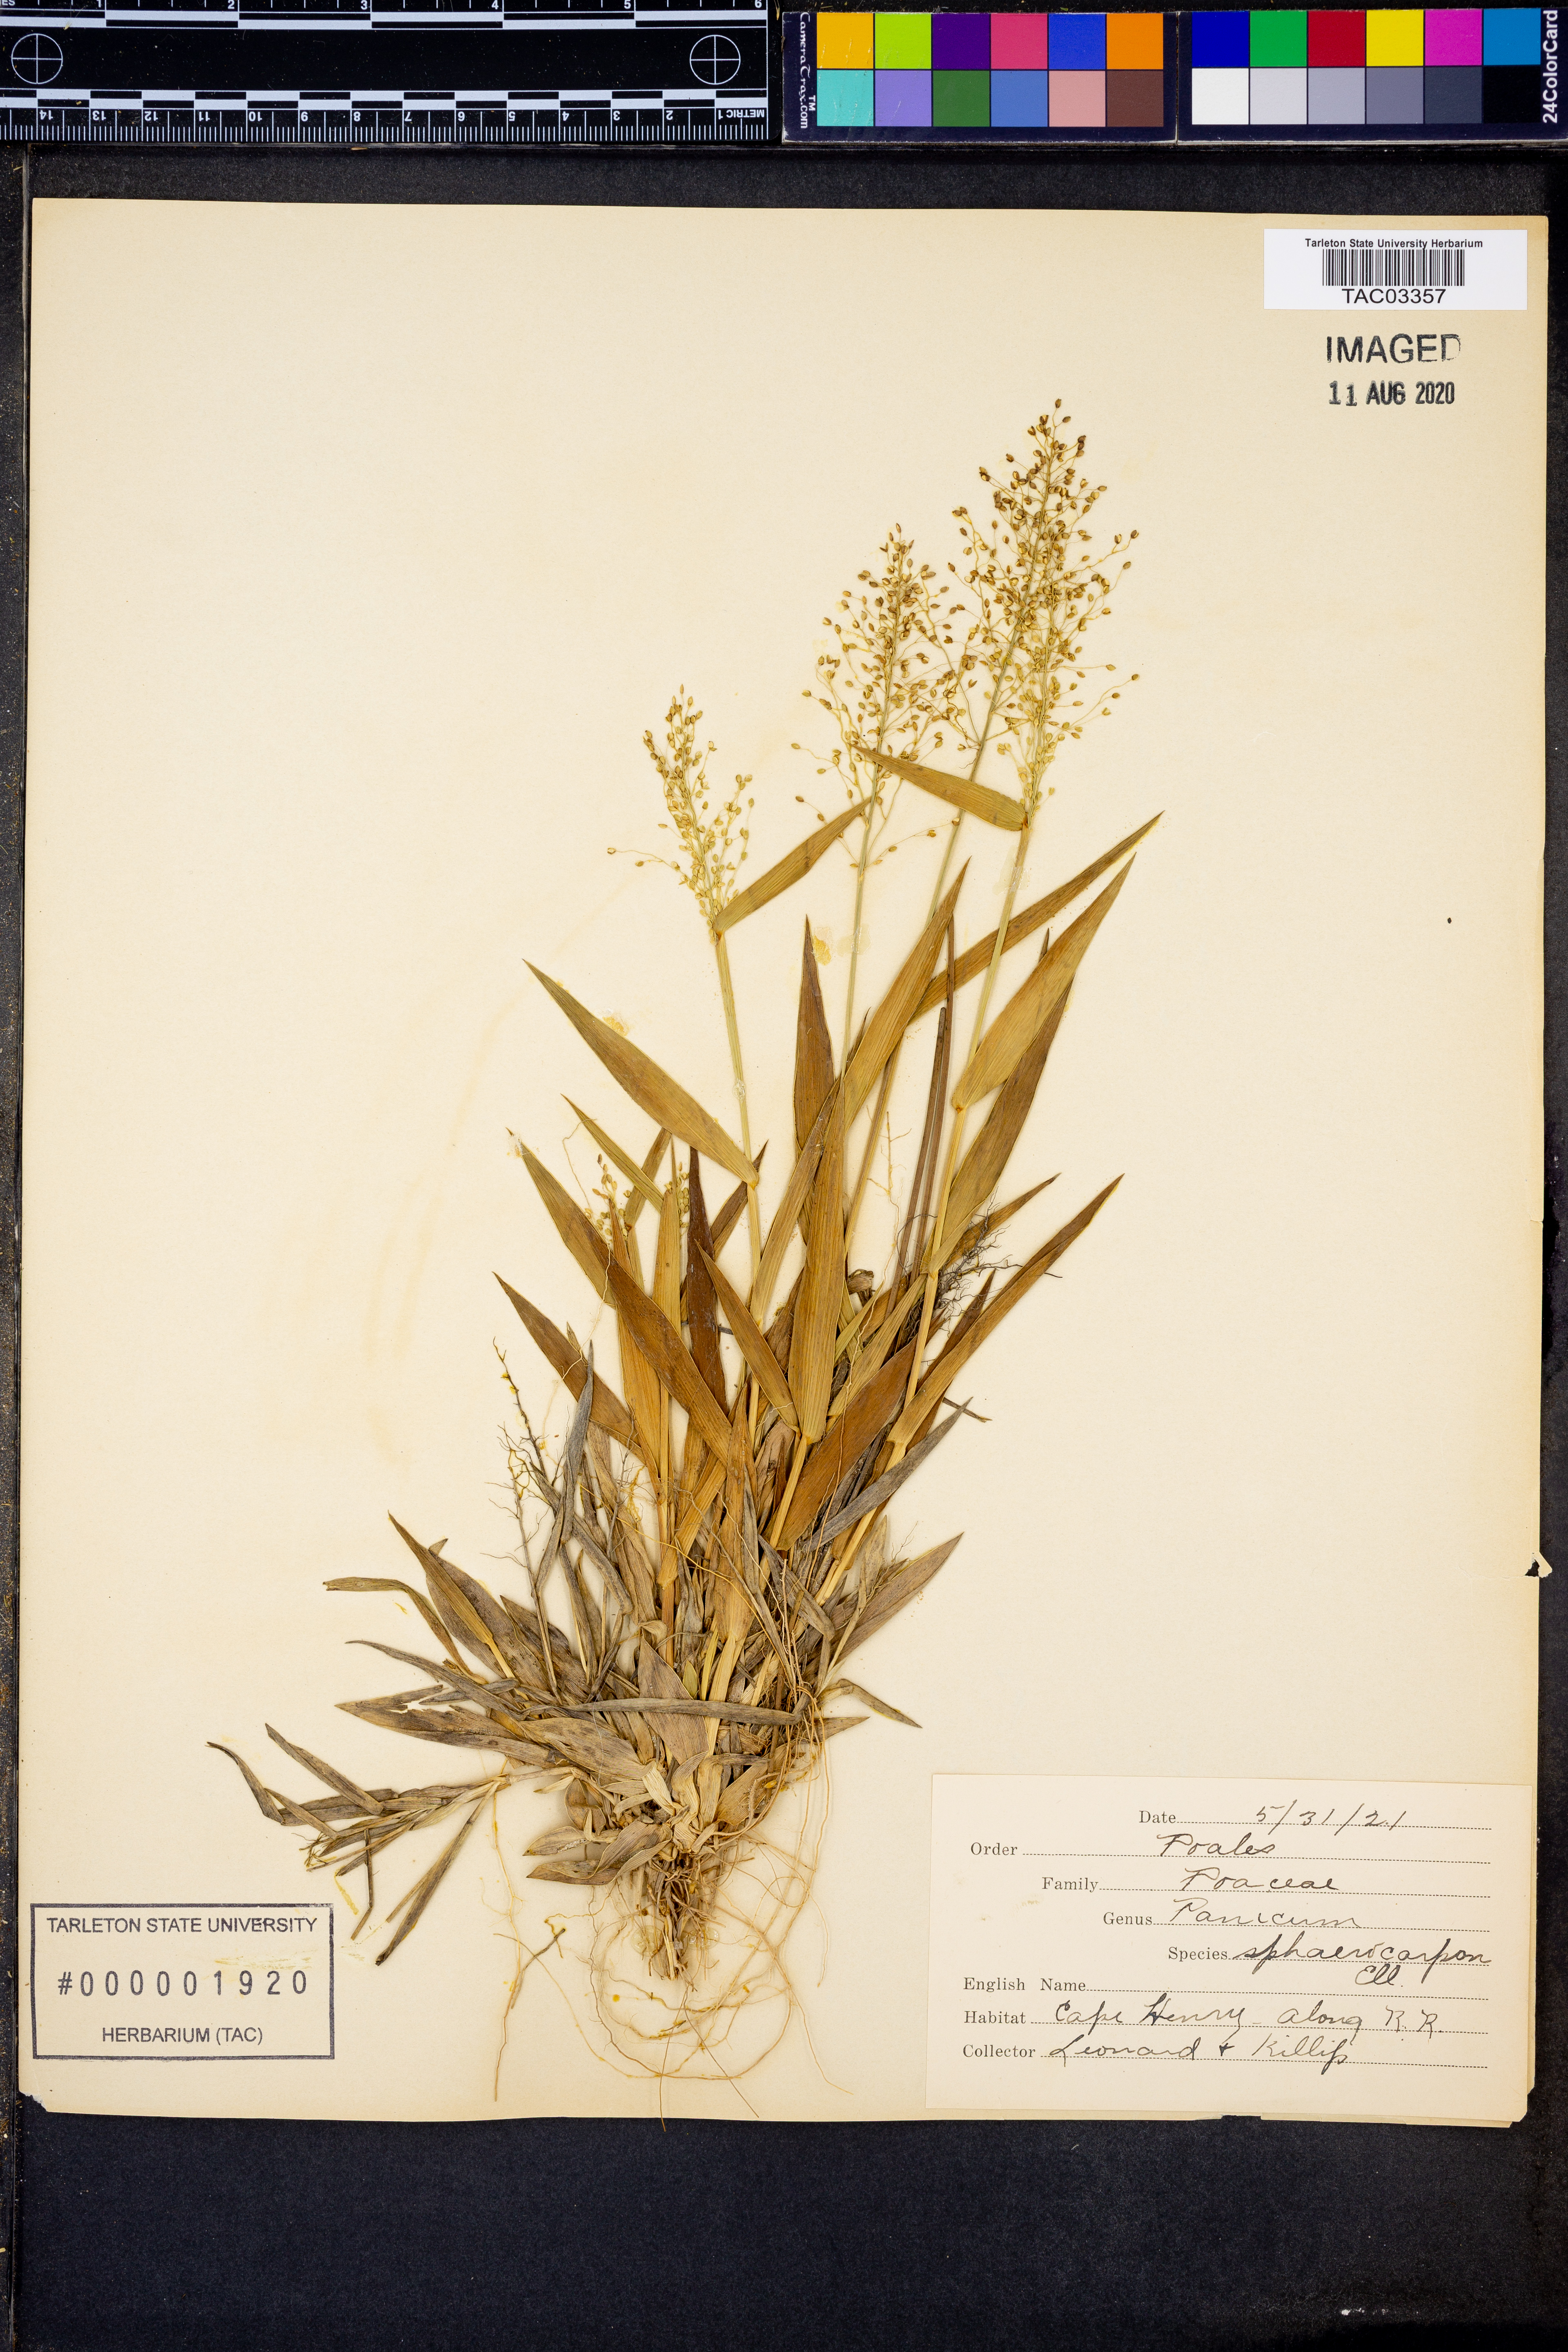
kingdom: Plantae
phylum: Tracheophyta
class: Liliopsida
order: Poales
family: Poaceae
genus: Dichanthelium
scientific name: Dichanthelium sphaerocarpon
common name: Round-fruited panicgrass
